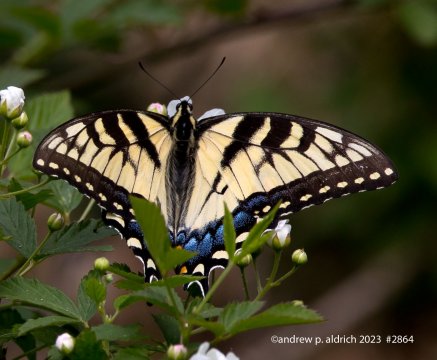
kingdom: Animalia
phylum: Arthropoda
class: Insecta
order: Lepidoptera
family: Papilionidae
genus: Pterourus
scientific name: Pterourus glaucus
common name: Eastern Tiger Swallowtail
